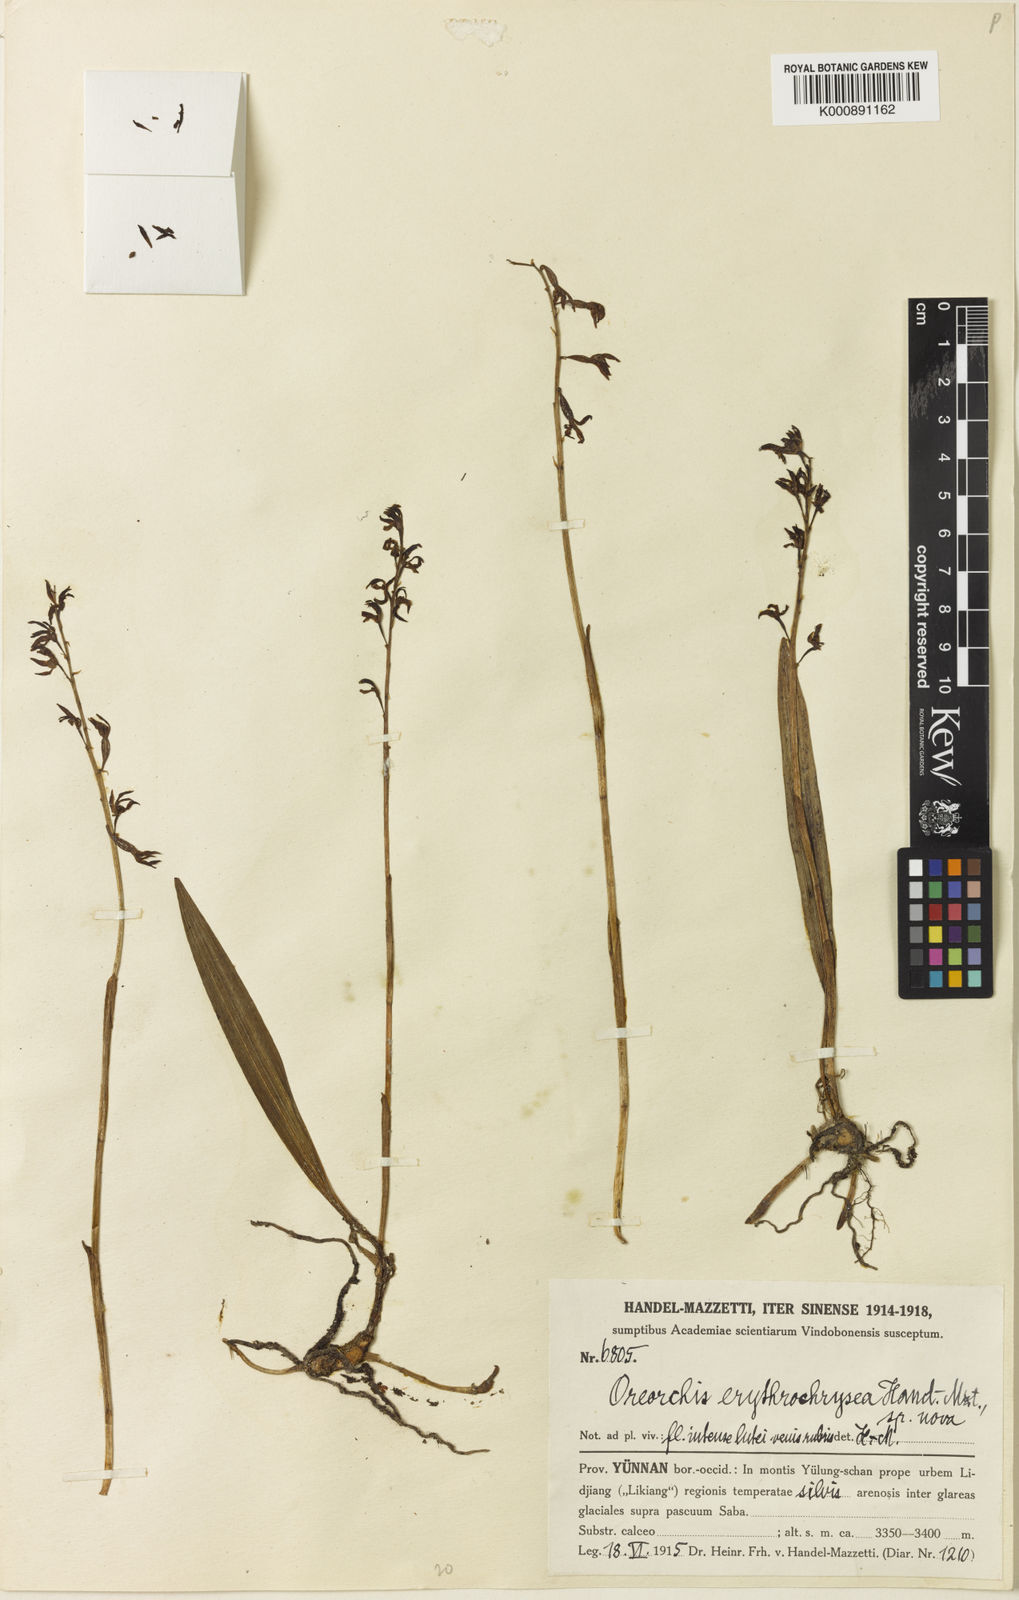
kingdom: Plantae
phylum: Tracheophyta
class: Liliopsida
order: Asparagales
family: Orchidaceae
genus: Oreorchis
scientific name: Oreorchis erythrochrysea
